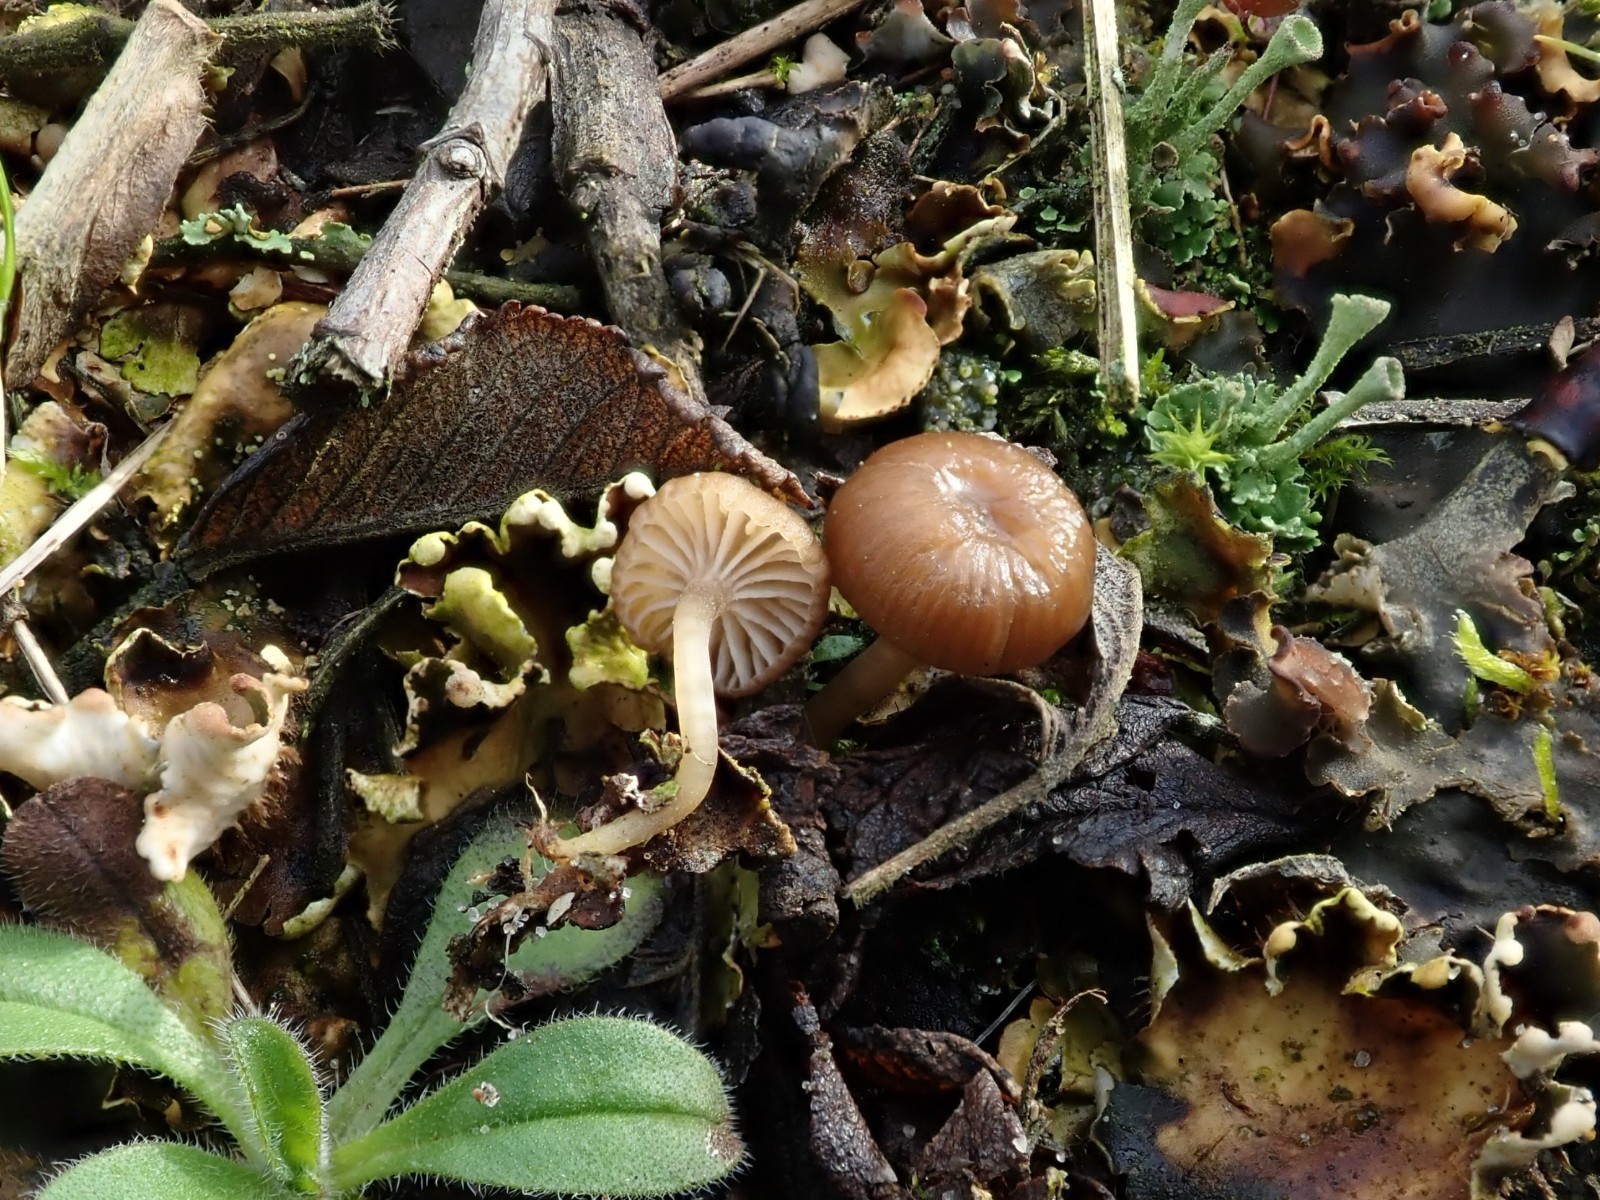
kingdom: Fungi
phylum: Basidiomycota
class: Agaricomycetes
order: Agaricales
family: Tricholomataceae
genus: Gamundia
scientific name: Gamundia xerophila
